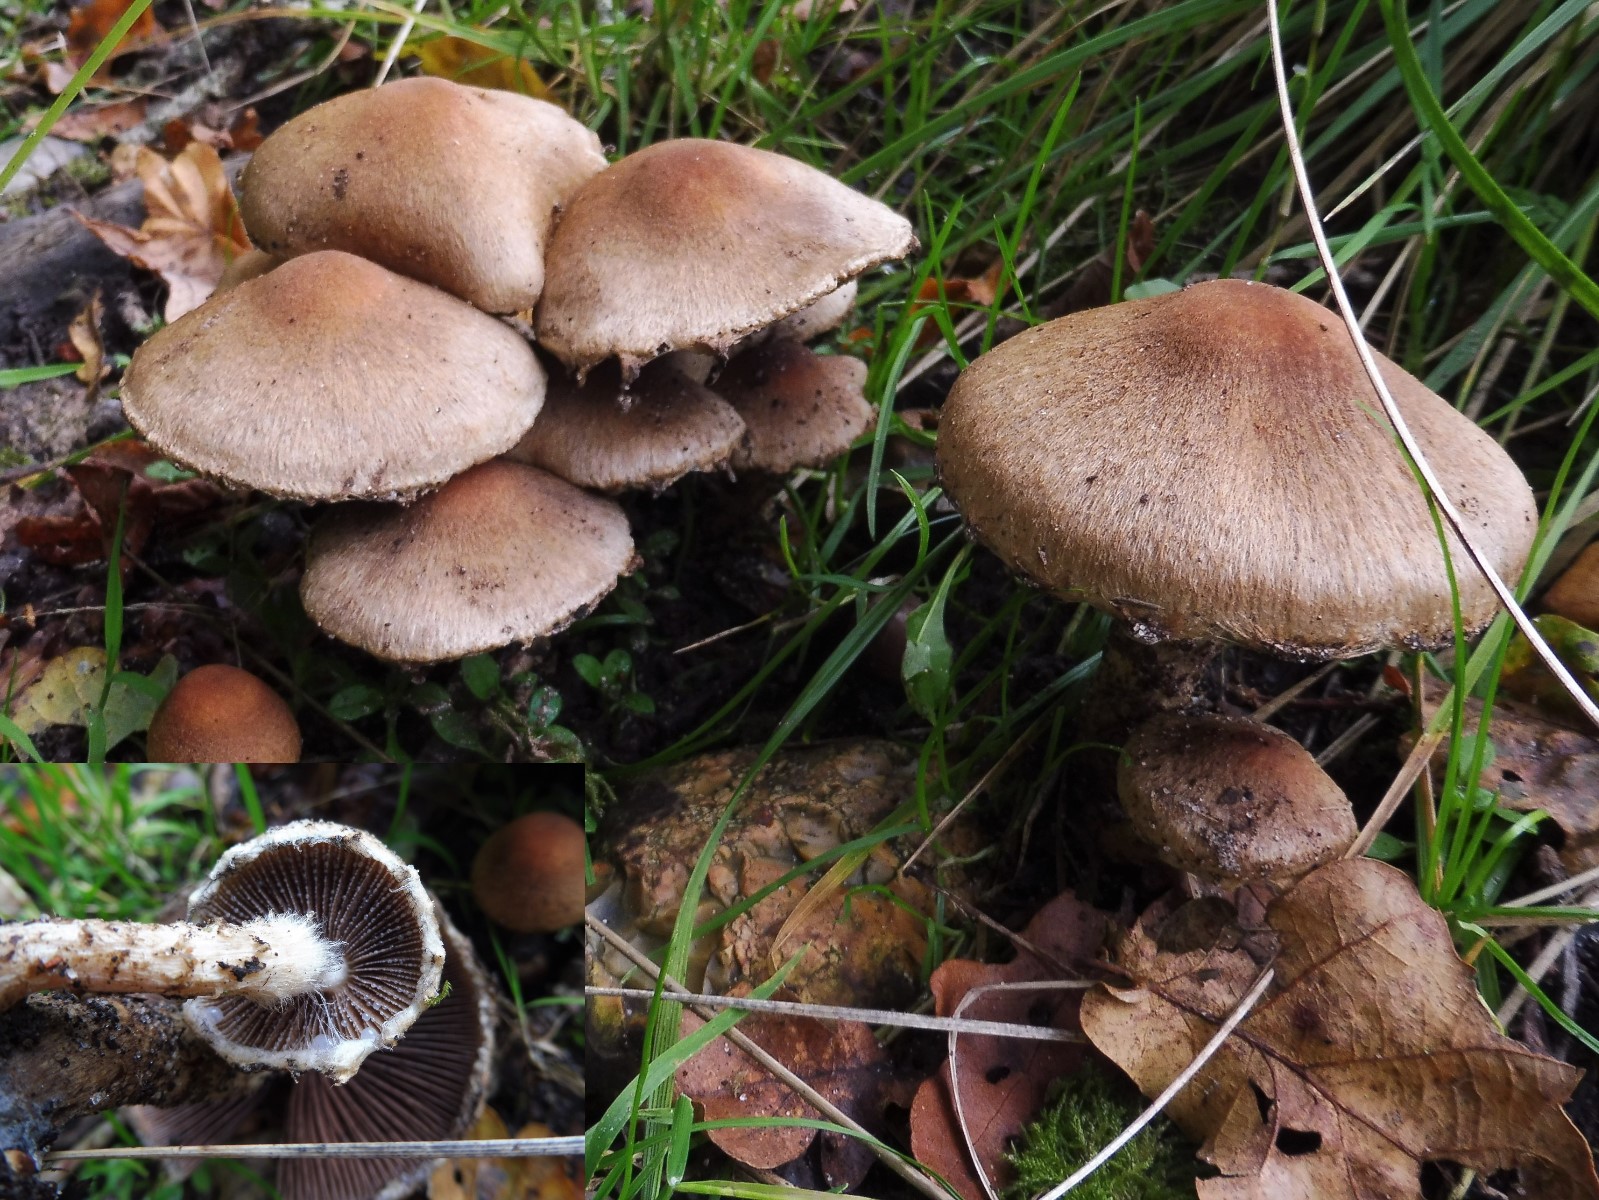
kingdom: Fungi
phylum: Basidiomycota
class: Agaricomycetes
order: Agaricales
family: Psathyrellaceae
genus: Lacrymaria
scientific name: Lacrymaria pyrotricha
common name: ildhåret mørkhat
